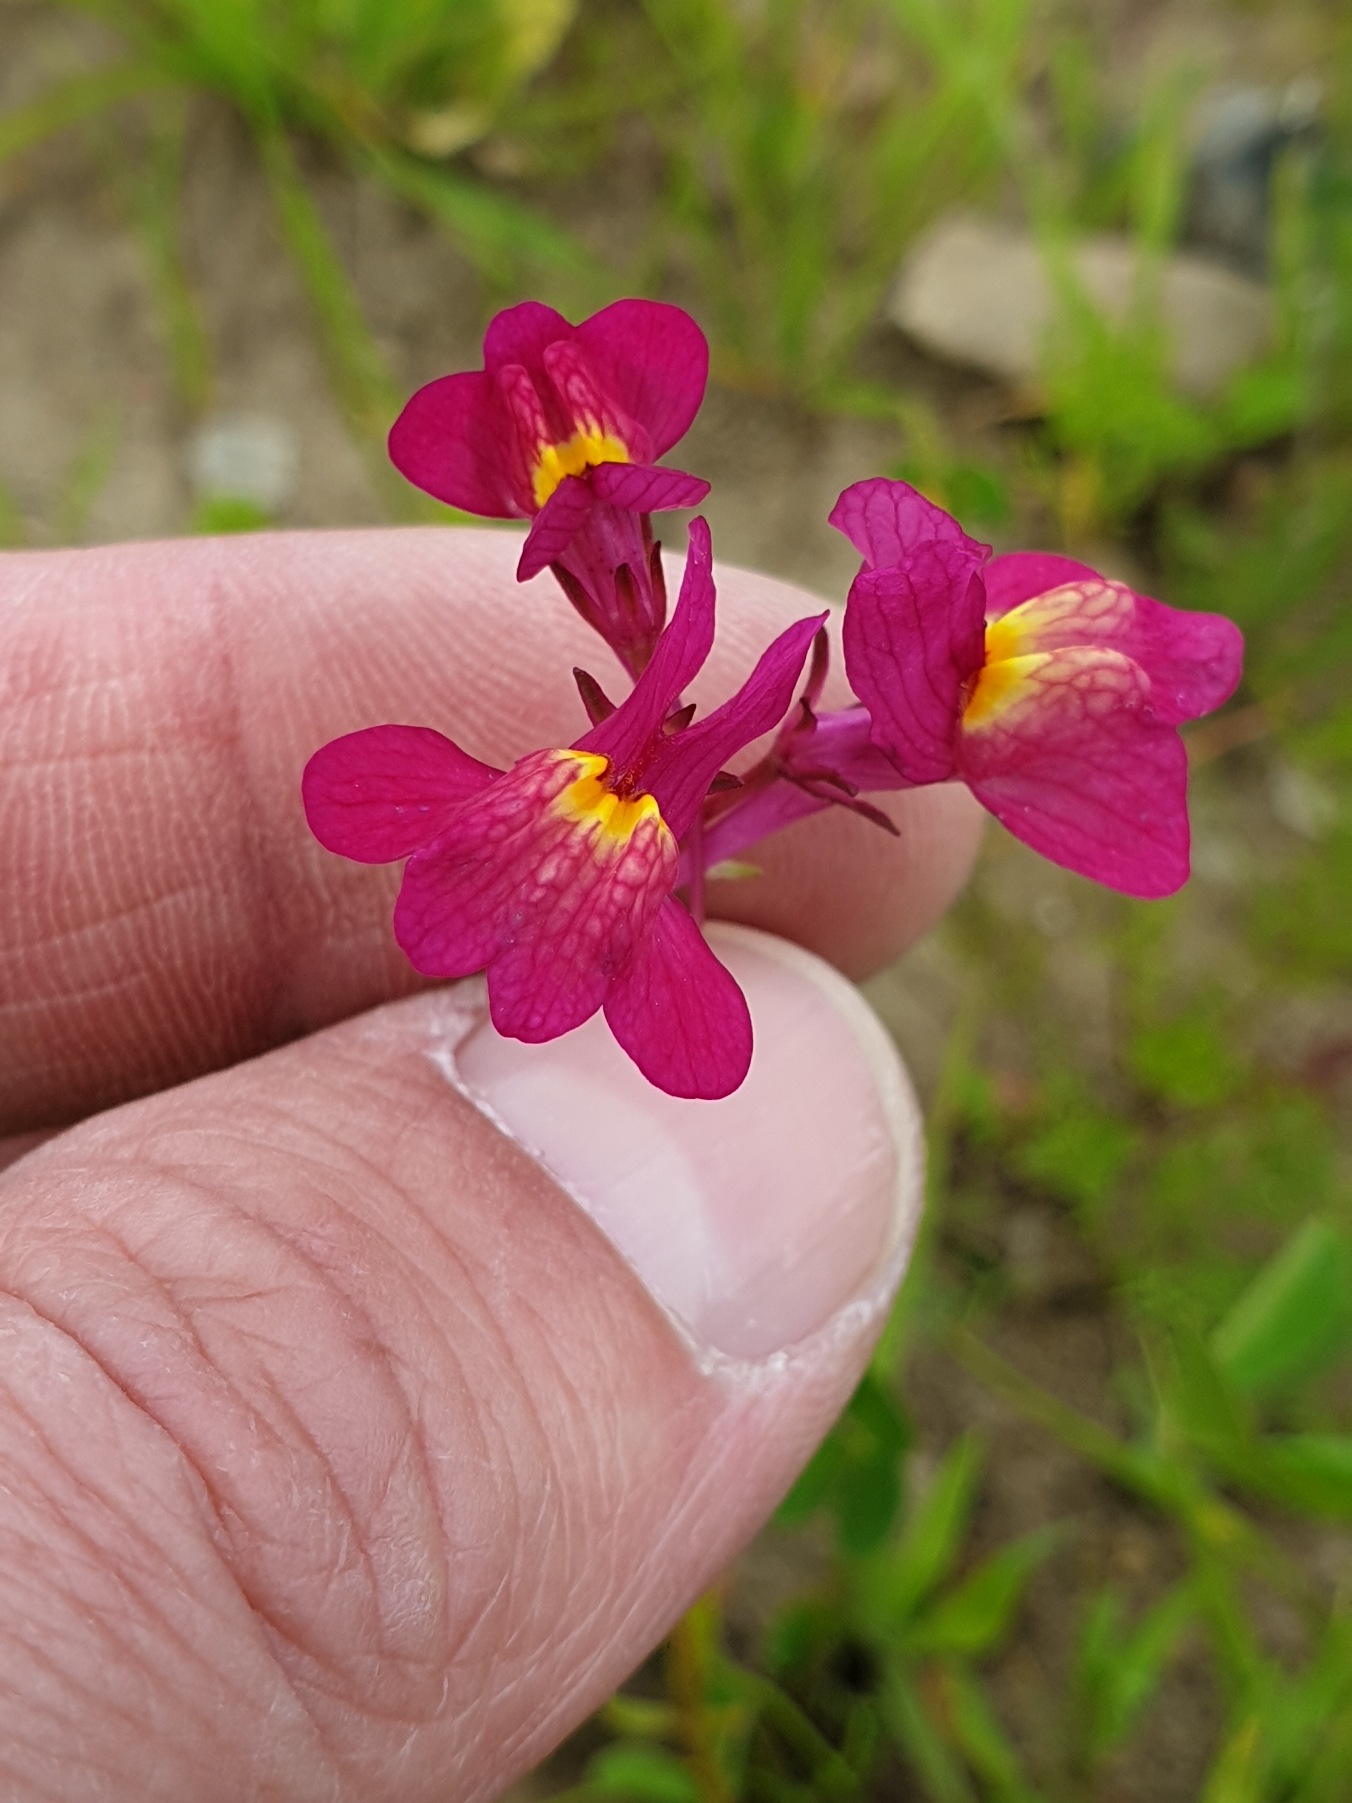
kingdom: Plantae
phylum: Tracheophyta
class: Magnoliopsida
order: Lamiales
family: Plantaginaceae
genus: Linaria
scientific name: Linaria maroccana
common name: Marokkansk torskemund
